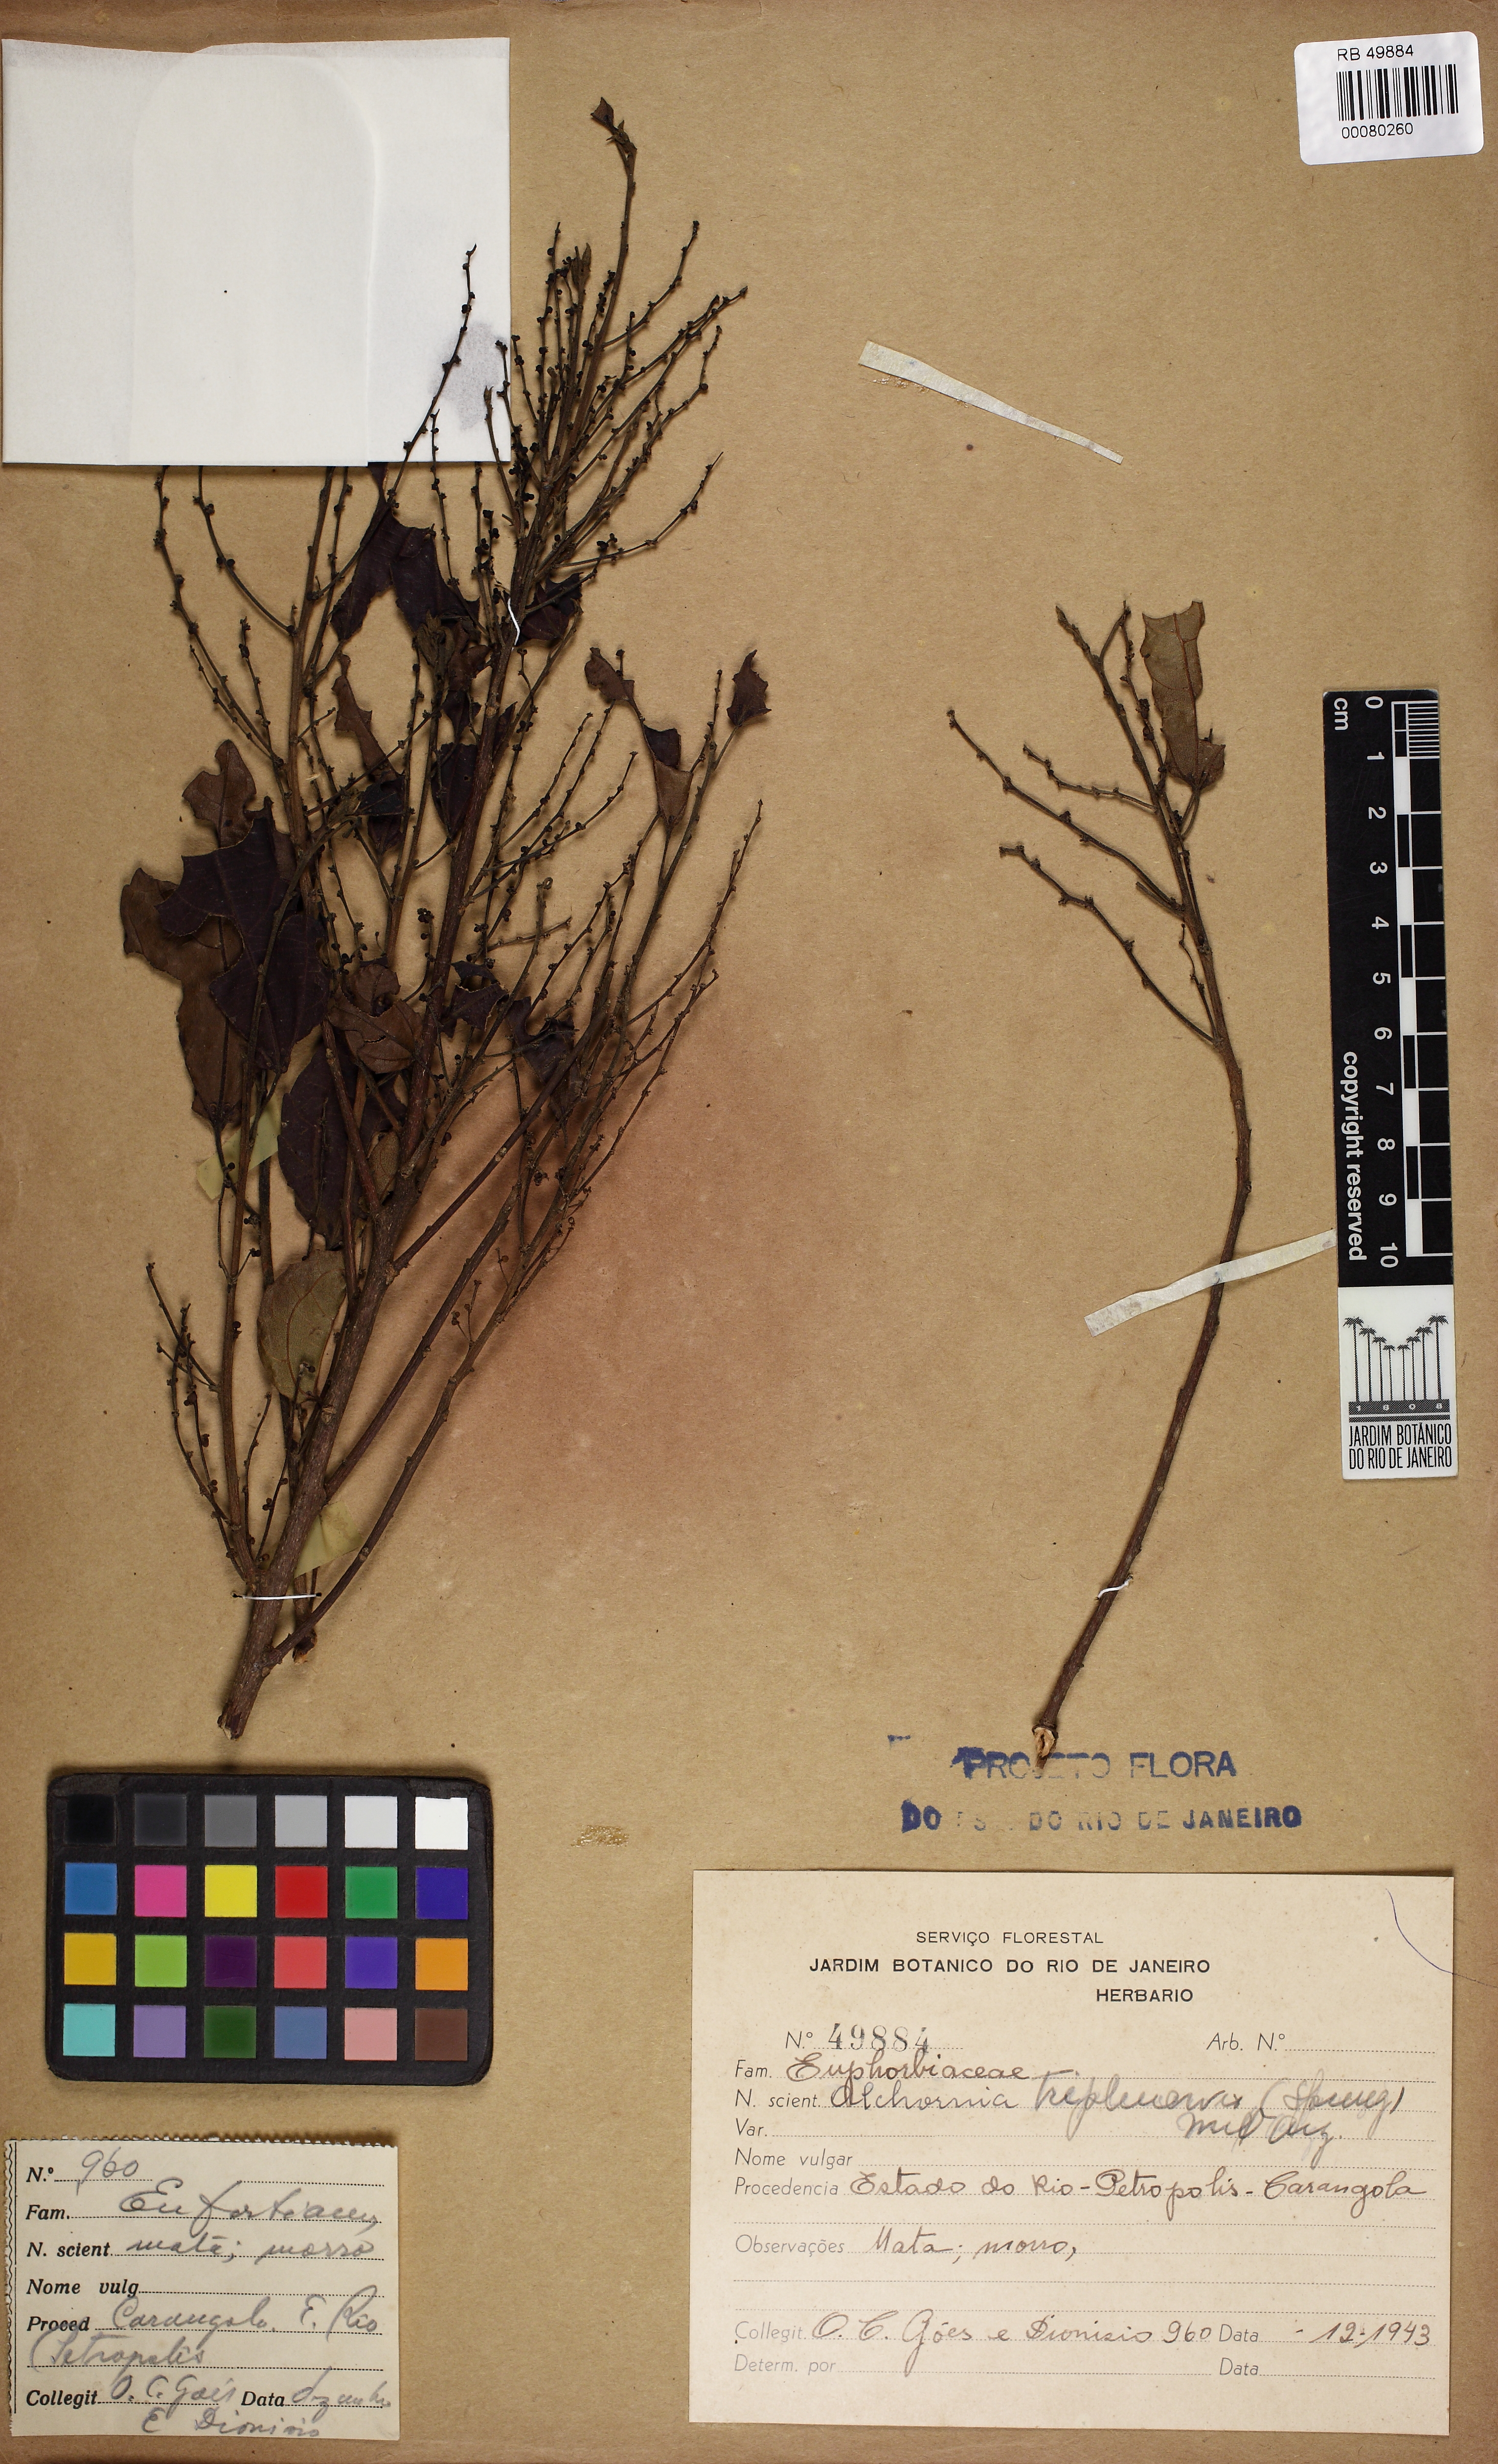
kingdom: Plantae
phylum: Tracheophyta
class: Magnoliopsida
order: Malpighiales
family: Euphorbiaceae
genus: Alchornea
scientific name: Alchornea triplinervia
